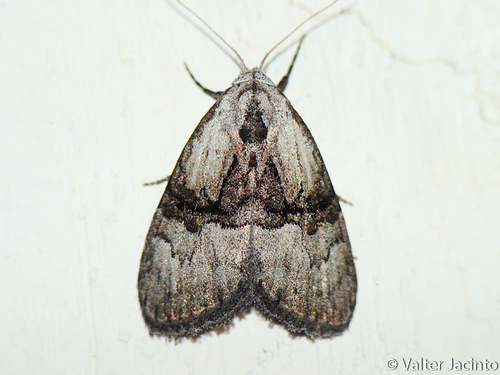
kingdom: Animalia
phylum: Arthropoda
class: Insecta
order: Lepidoptera
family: Nolidae
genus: Meganola
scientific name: Meganola togatulalis
